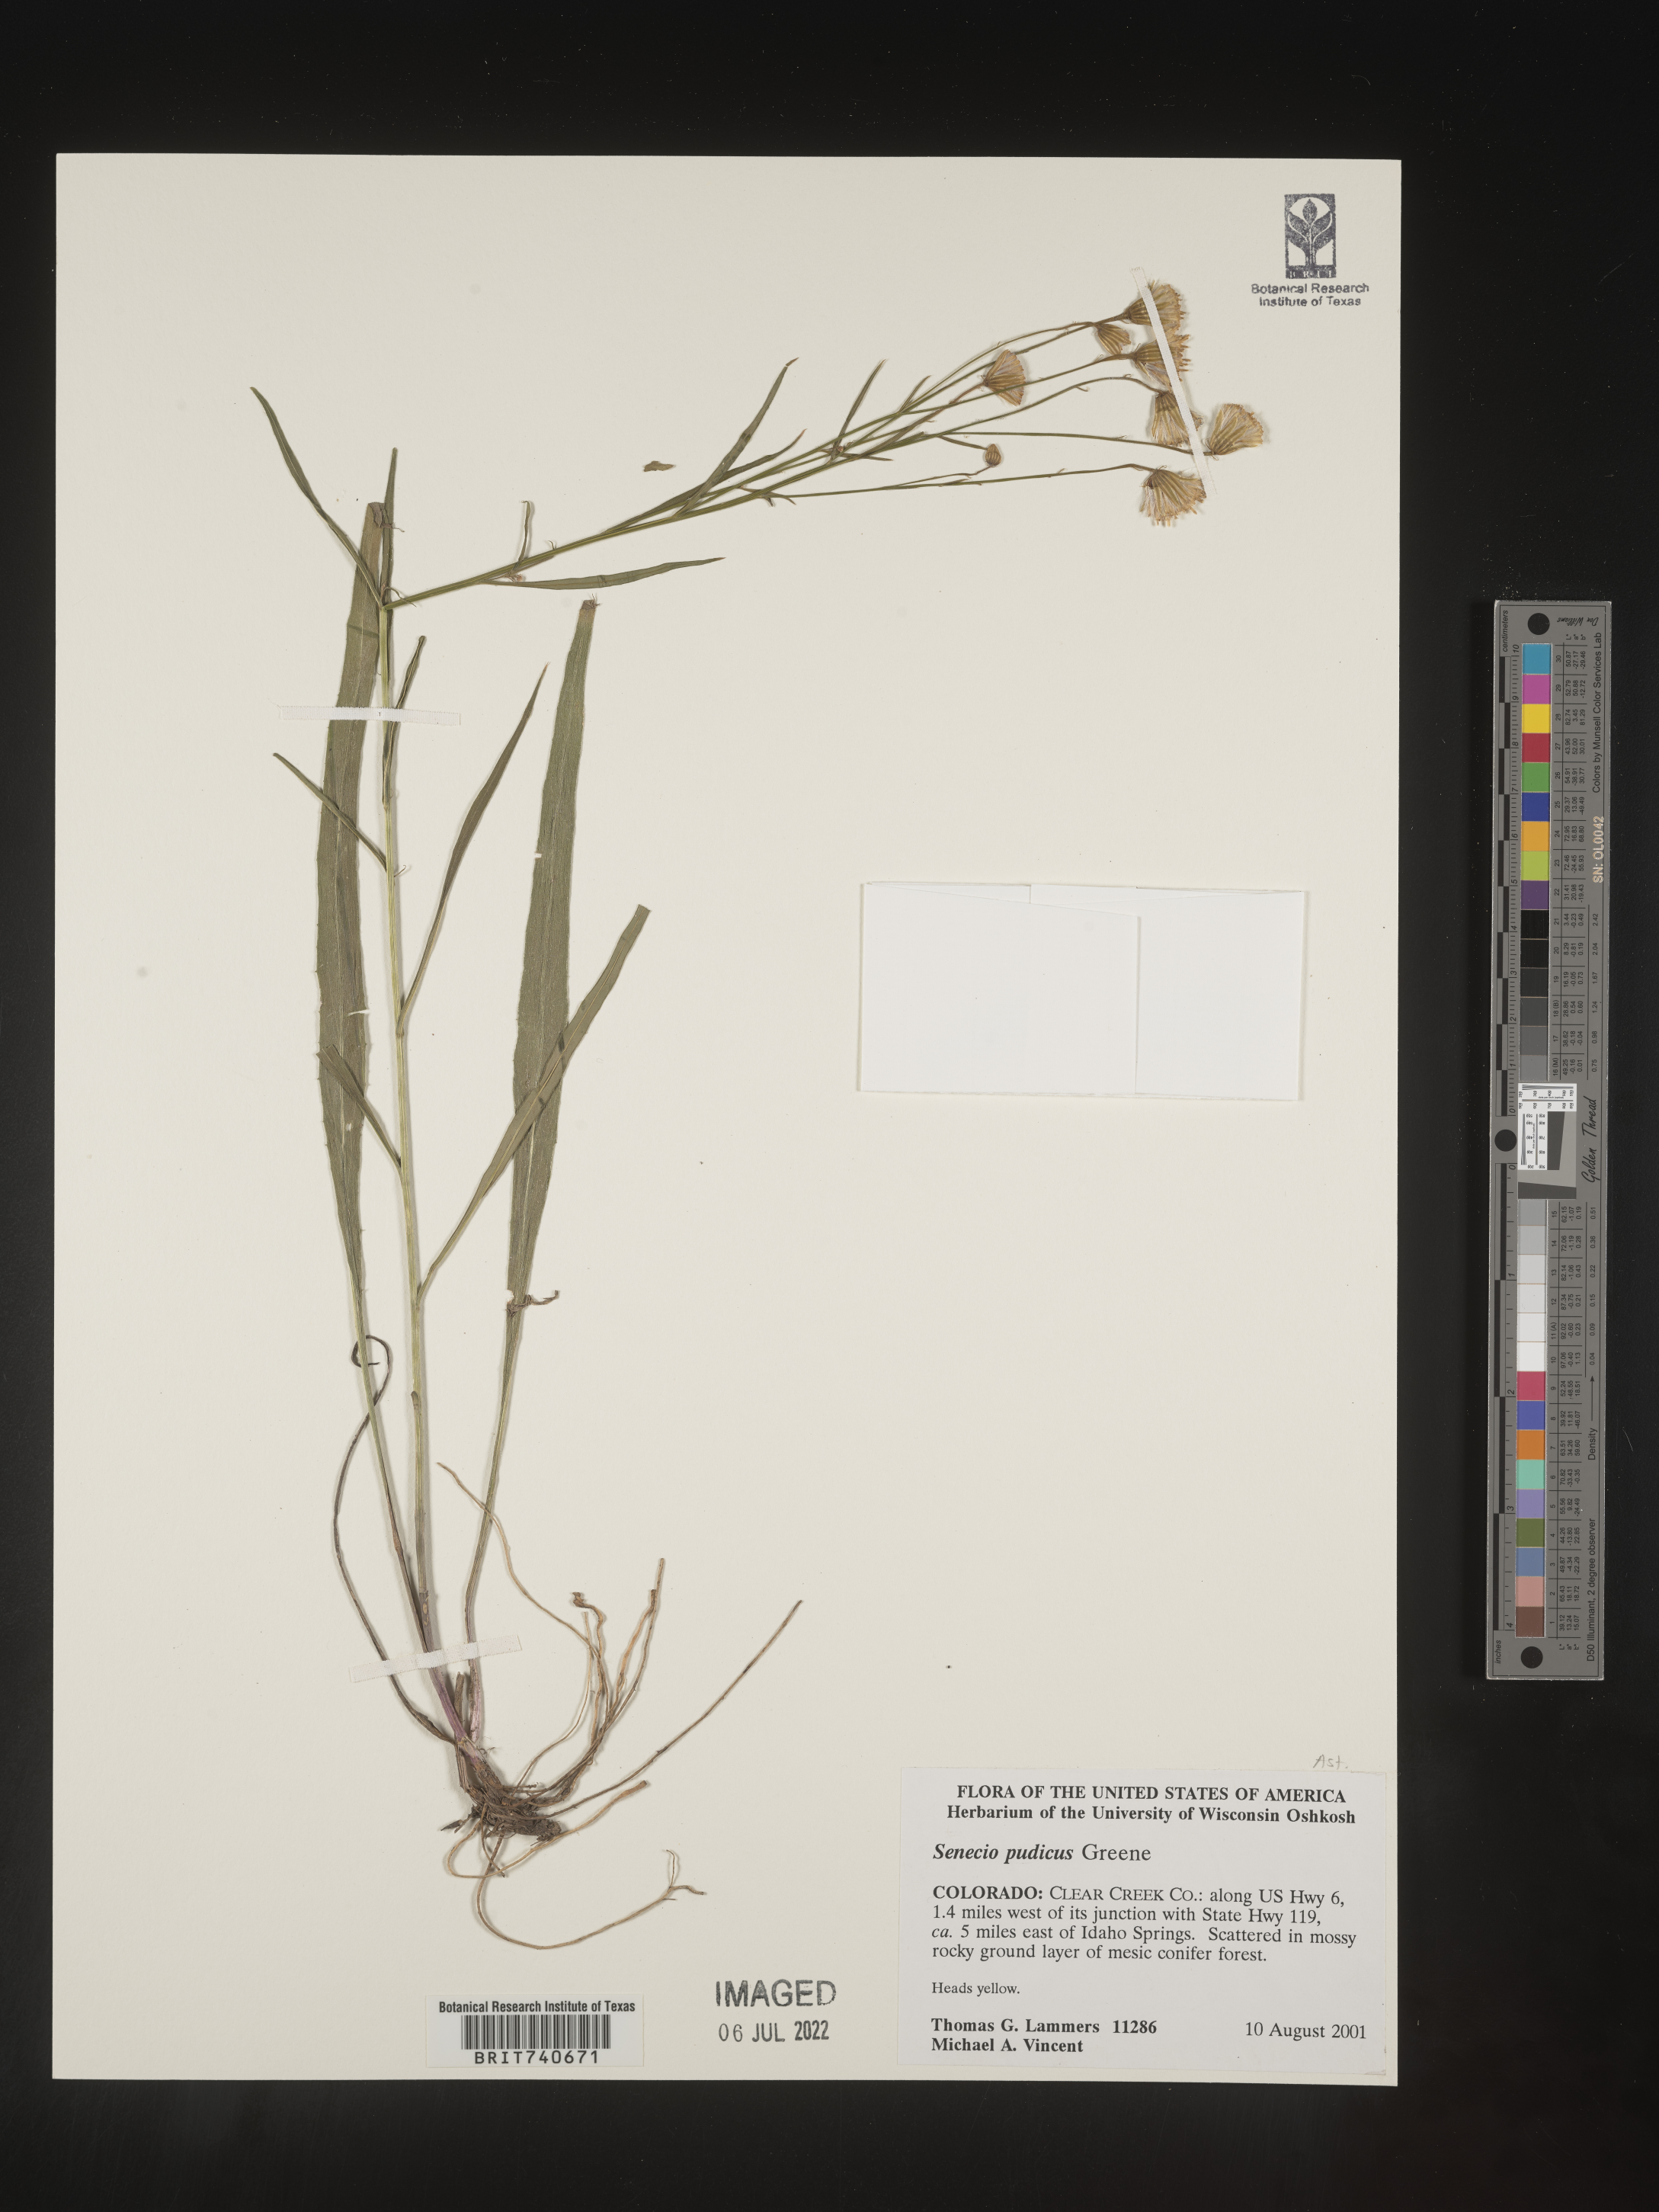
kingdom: Plantae
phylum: Tracheophyta
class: Magnoliopsida
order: Asterales
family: Asteraceae
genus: Senecio
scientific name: Senecio pudicus
